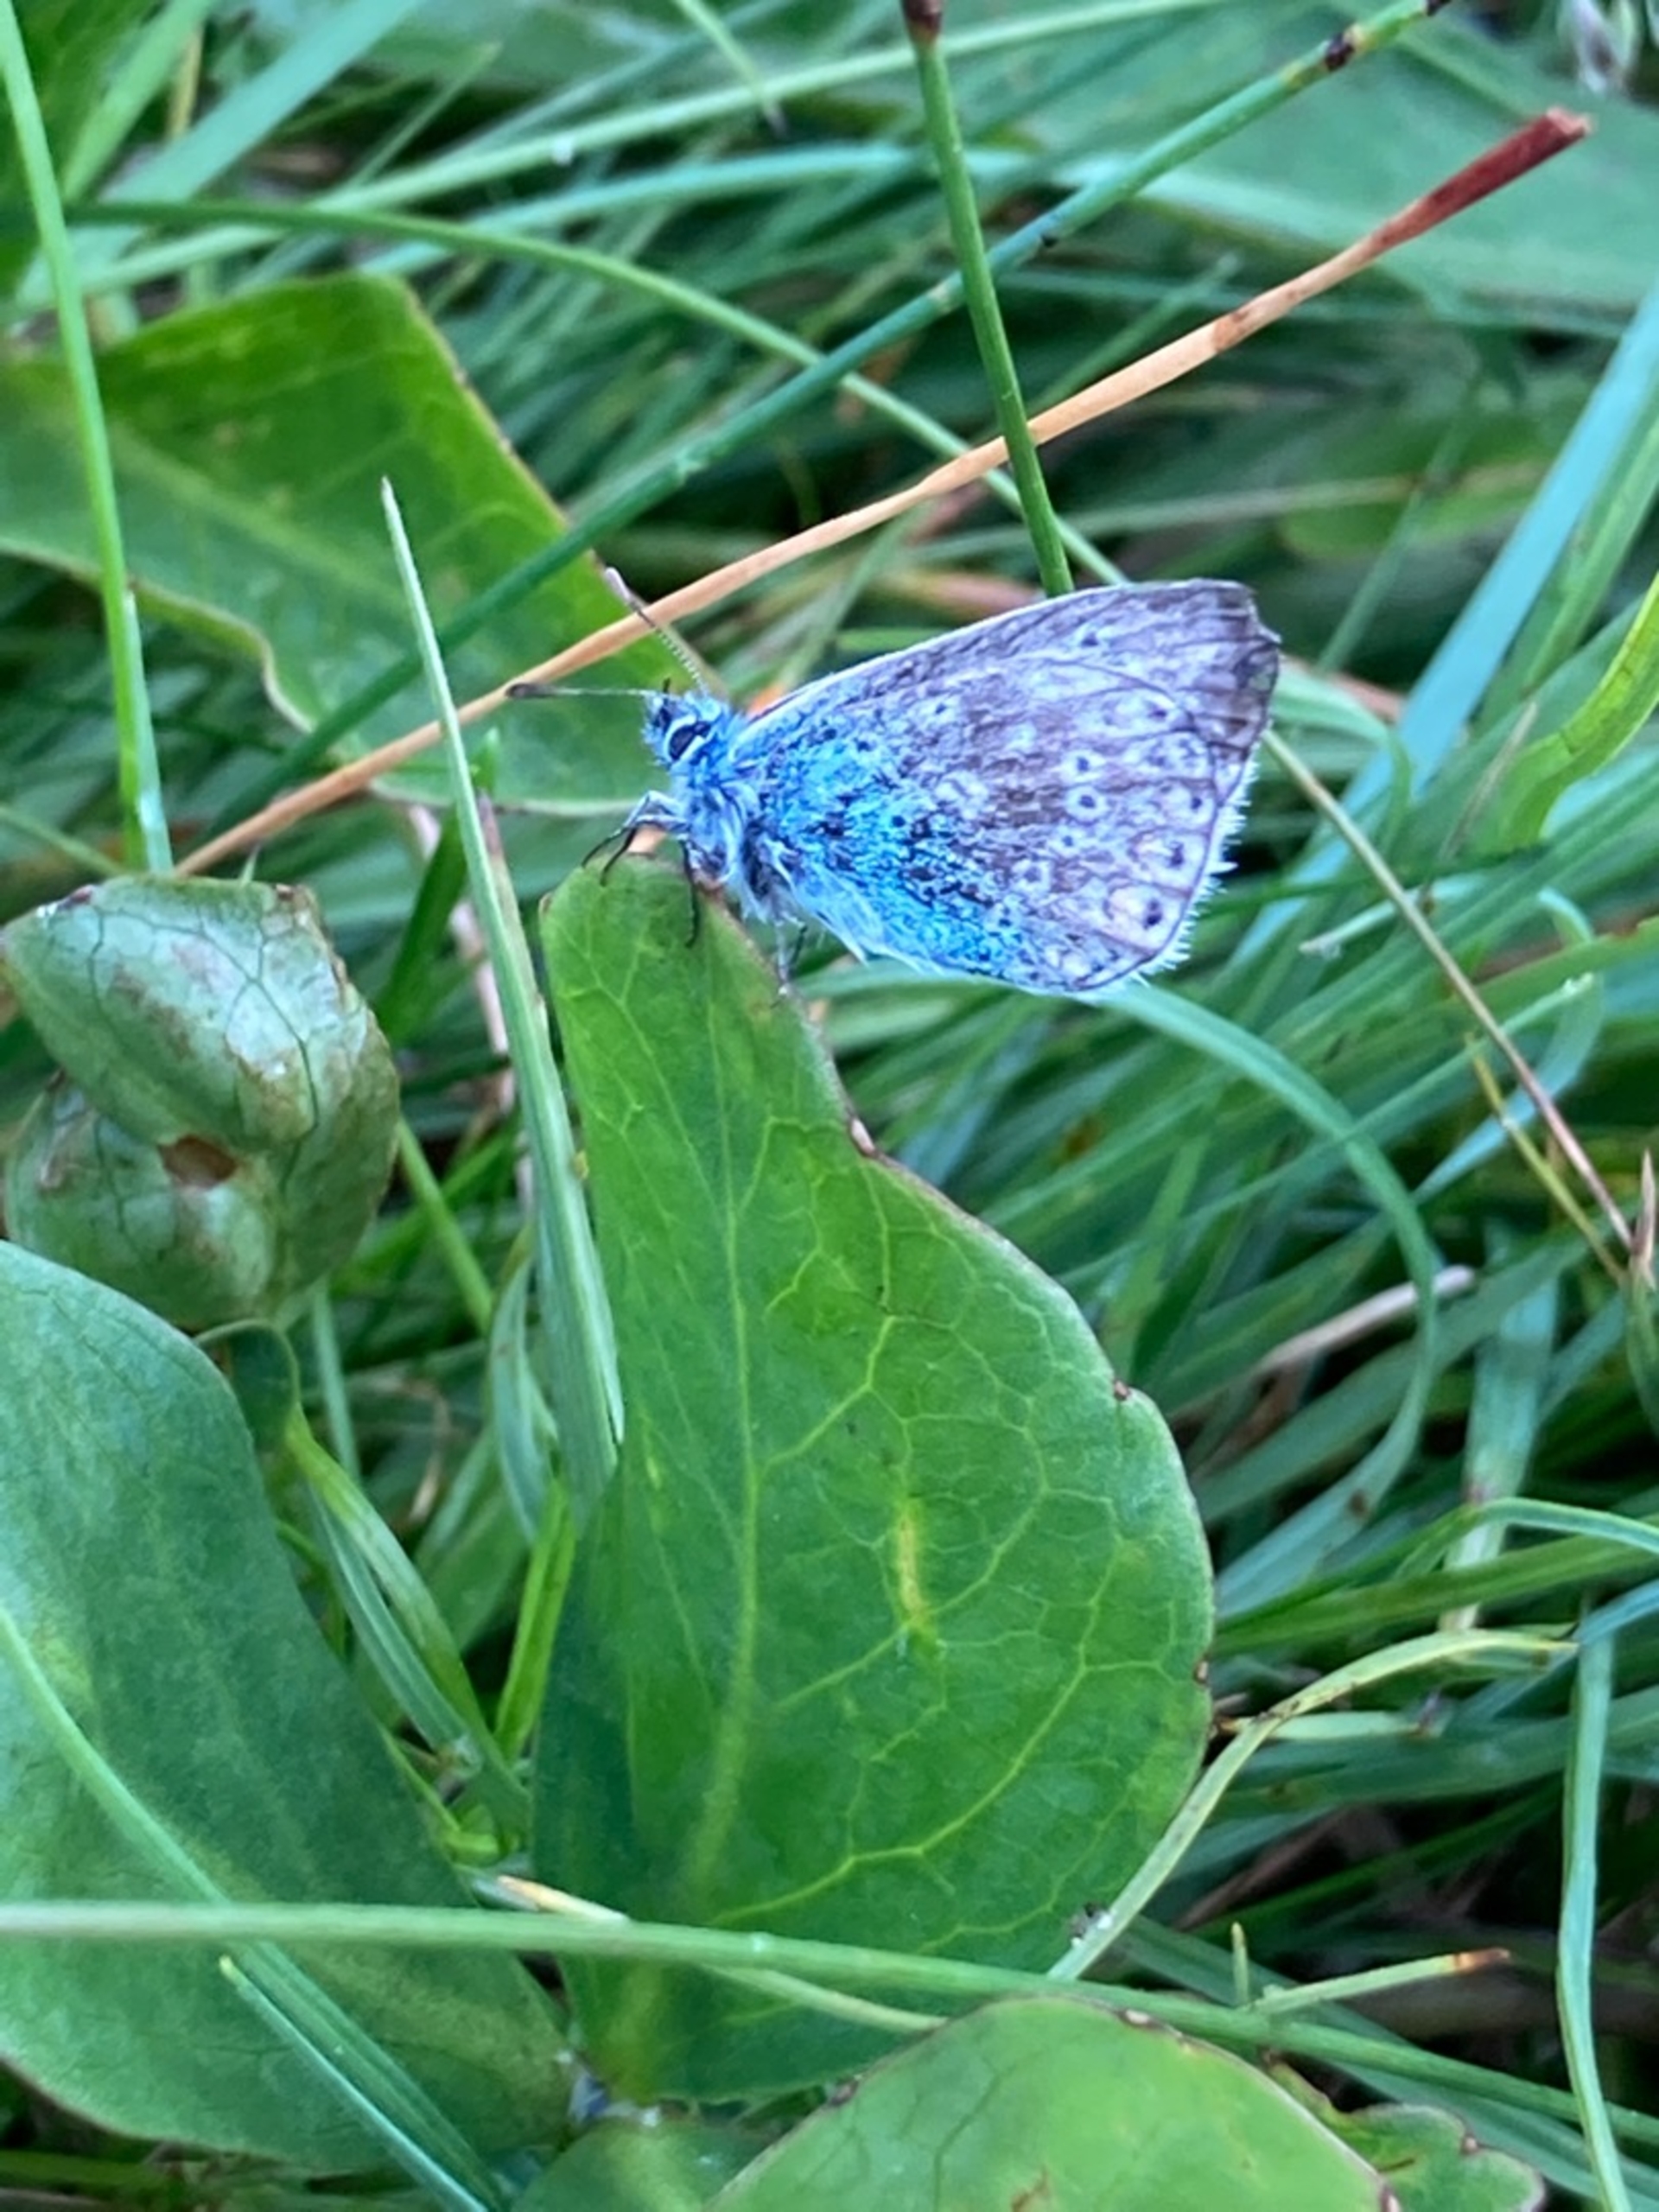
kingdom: Animalia
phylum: Arthropoda
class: Insecta
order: Lepidoptera
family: Lycaenidae
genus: Polyommatus
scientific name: Polyommatus icarus
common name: Almindelig blåfugl
